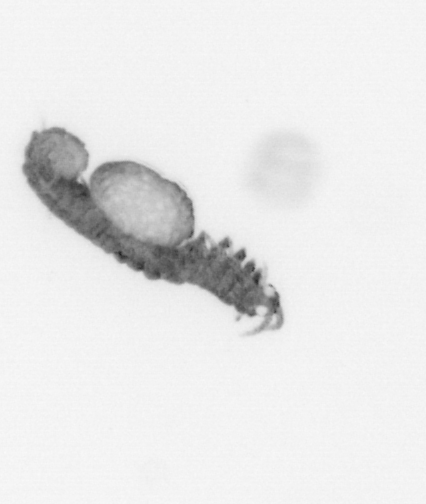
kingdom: Animalia
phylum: Annelida
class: Polychaeta
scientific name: Polychaeta
